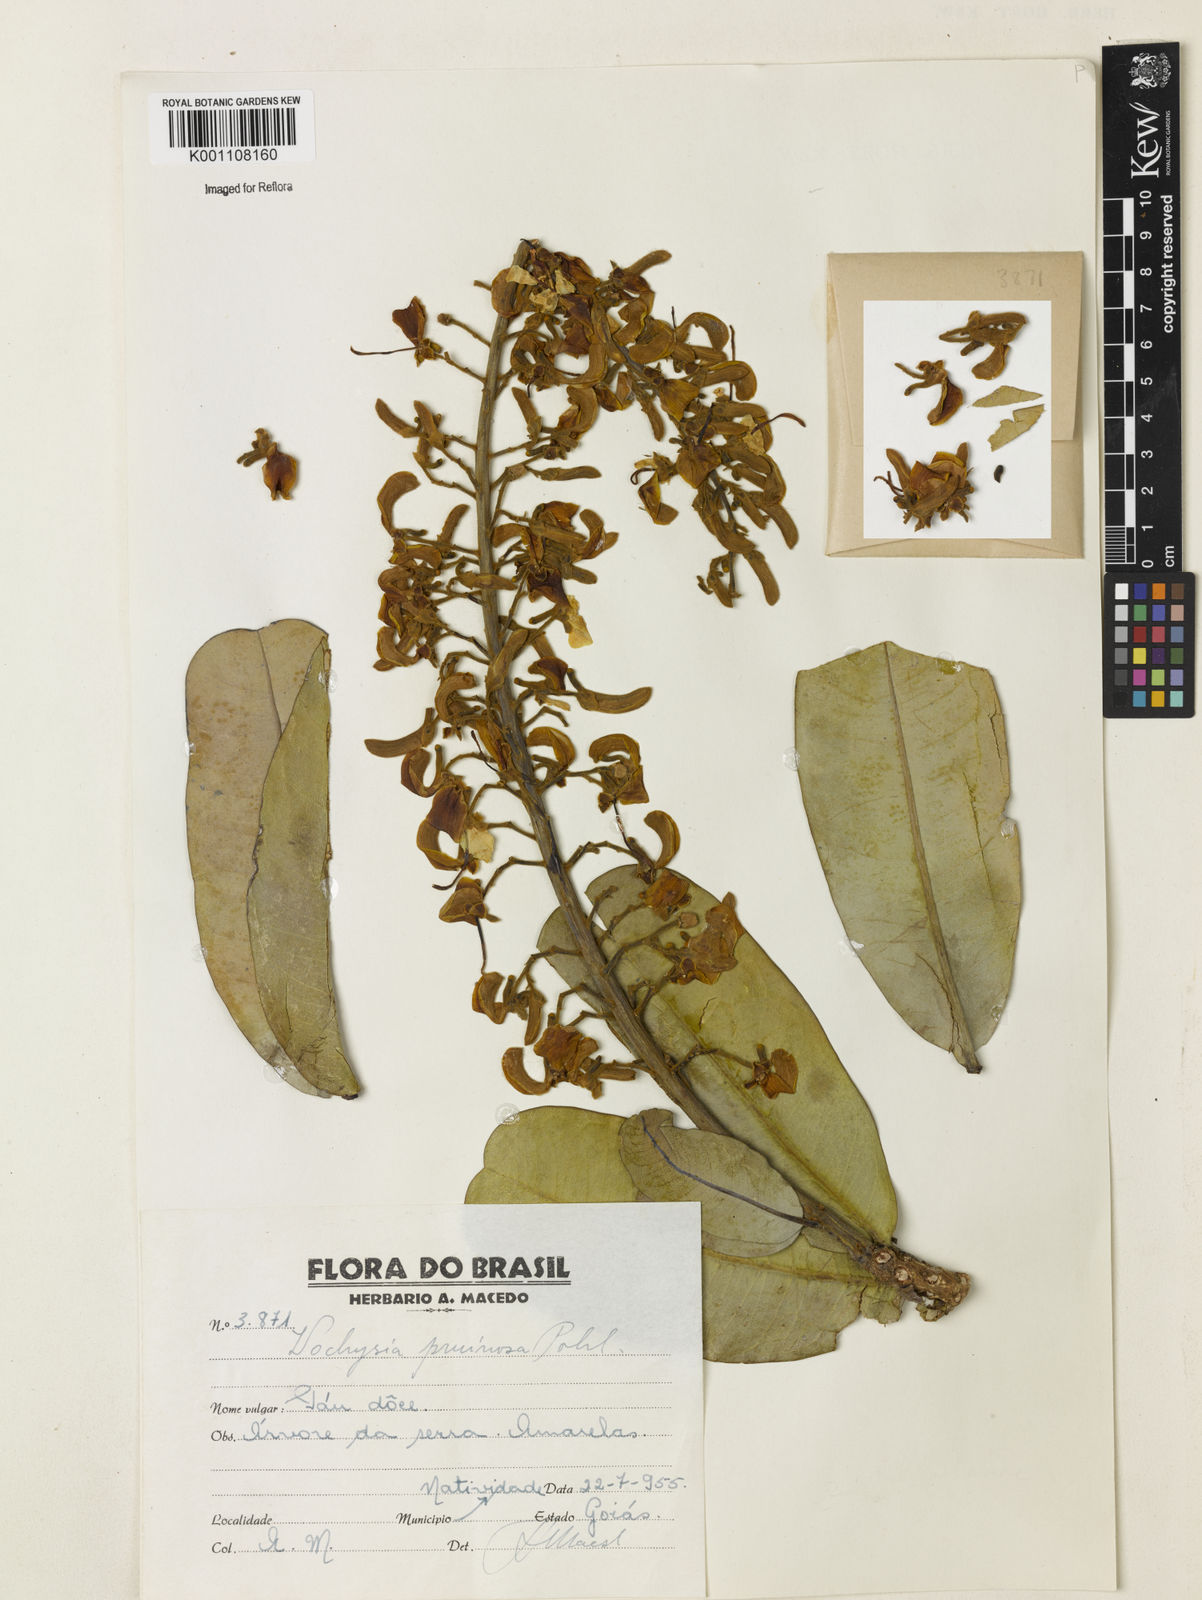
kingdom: Plantae
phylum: Tracheophyta
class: Magnoliopsida
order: Myrtales
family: Vochysiaceae
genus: Vochysia
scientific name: Vochysia pruinosa
